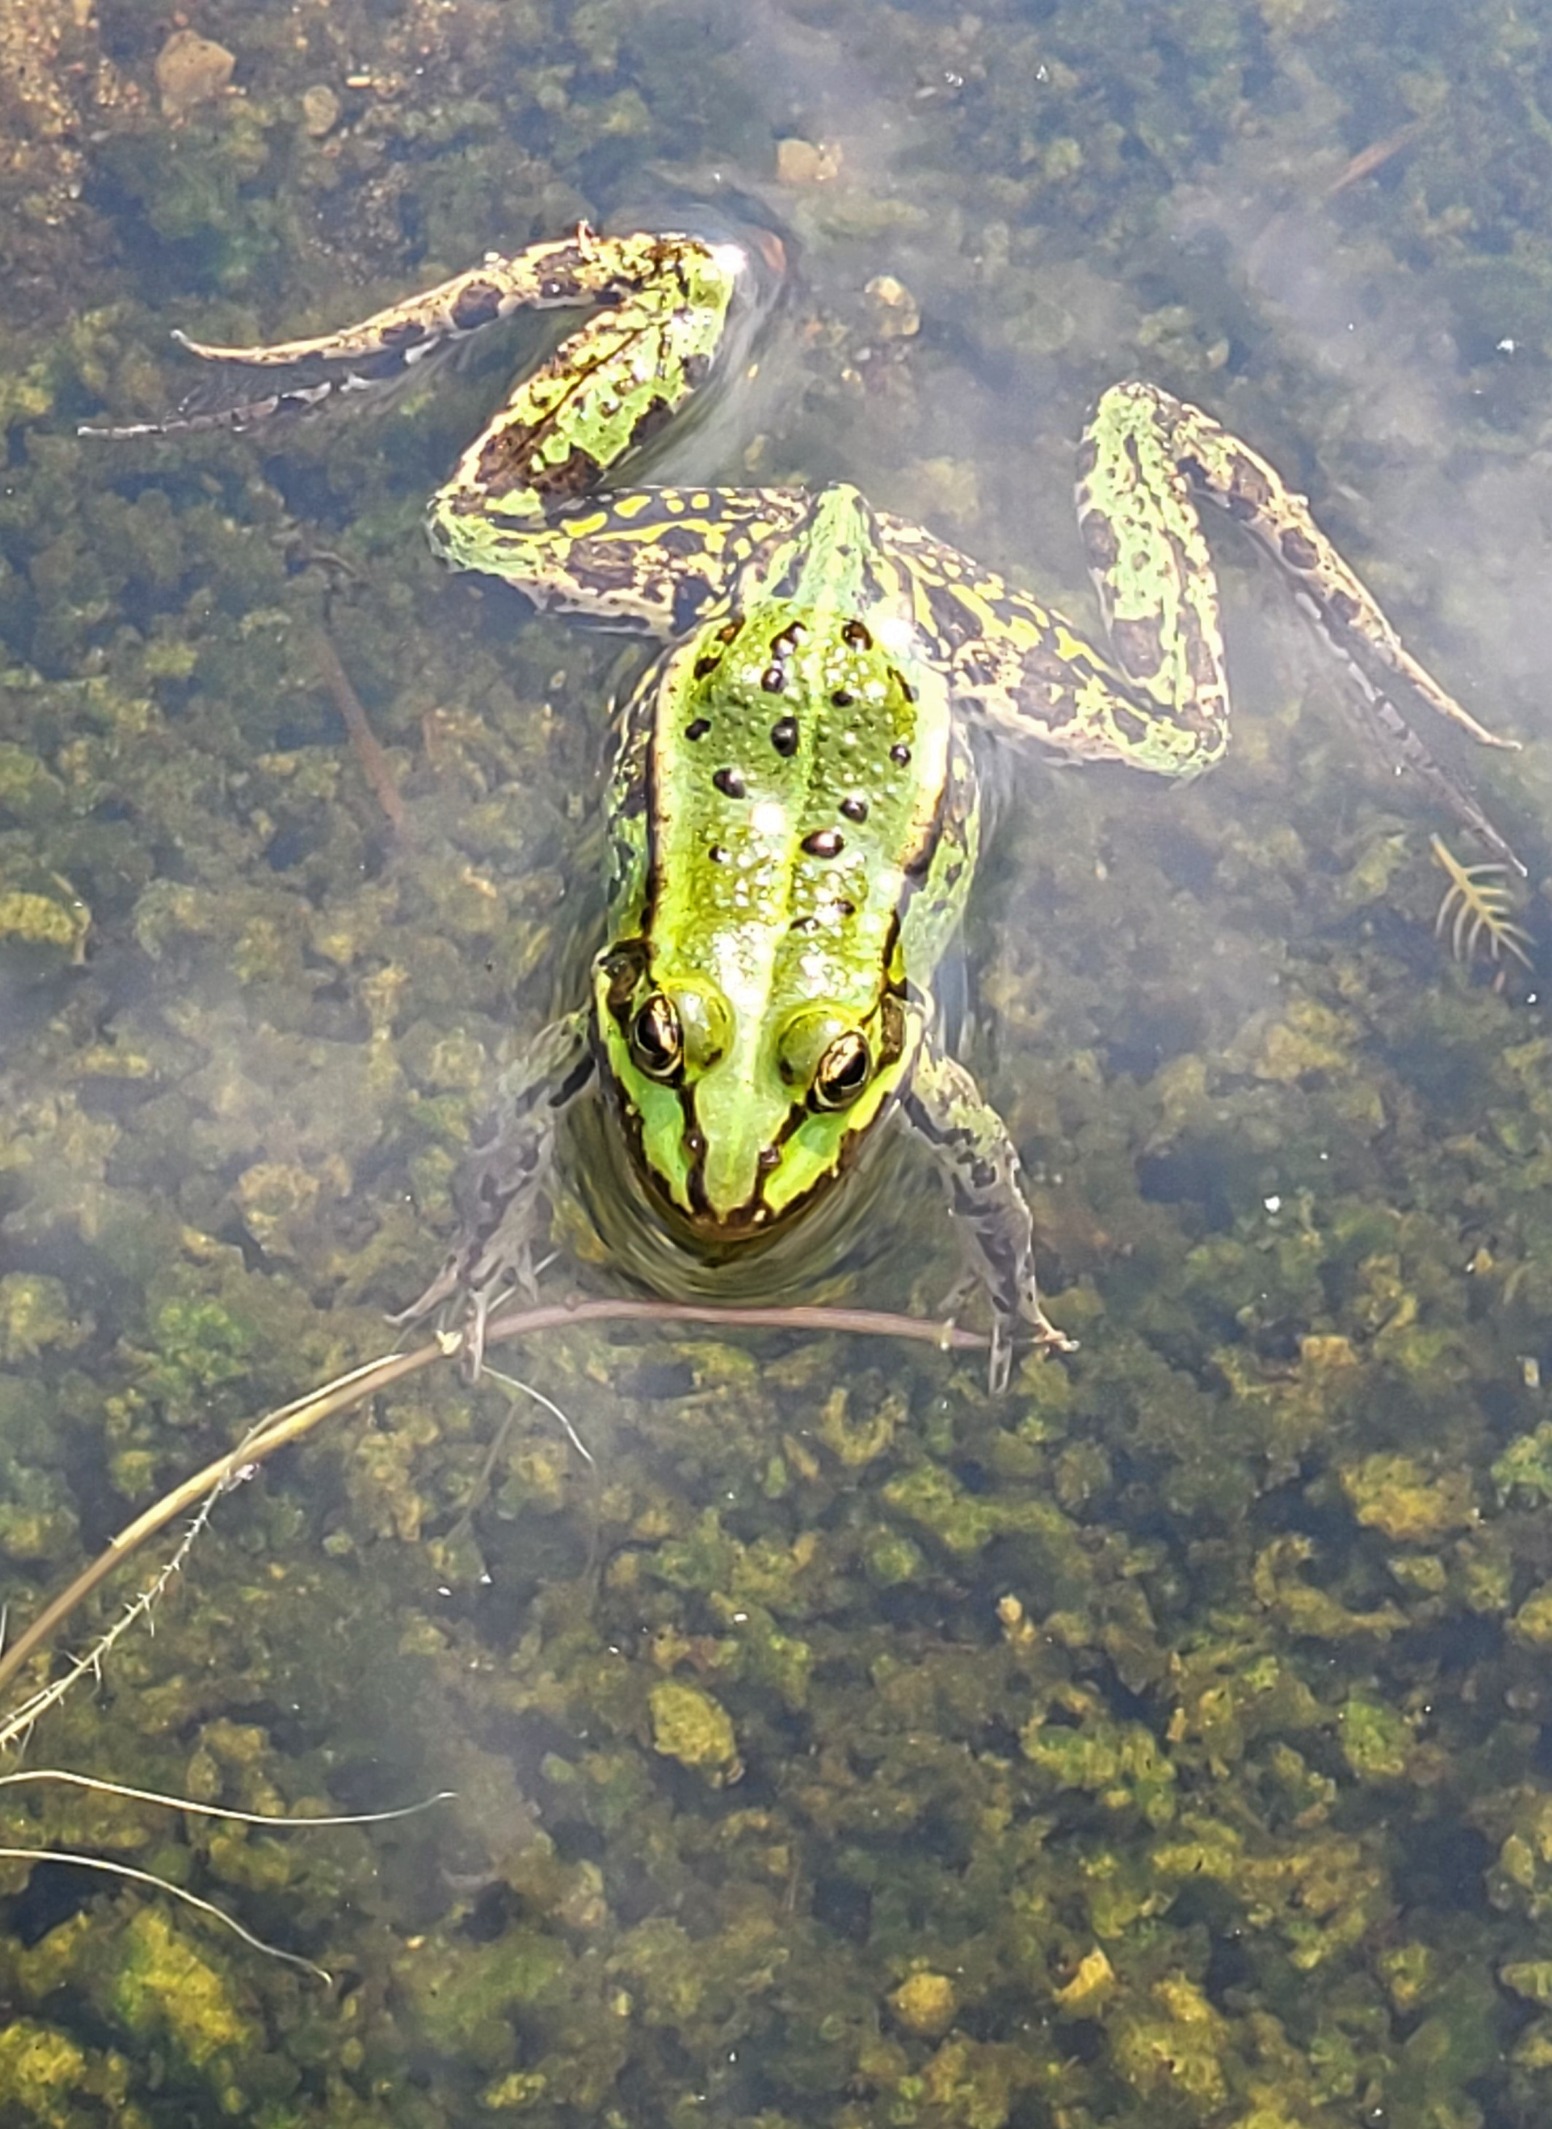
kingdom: Animalia
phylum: Chordata
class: Amphibia
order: Anura
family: Ranidae
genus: Pelophylax
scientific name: Pelophylax lessonae
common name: Grøn frø
